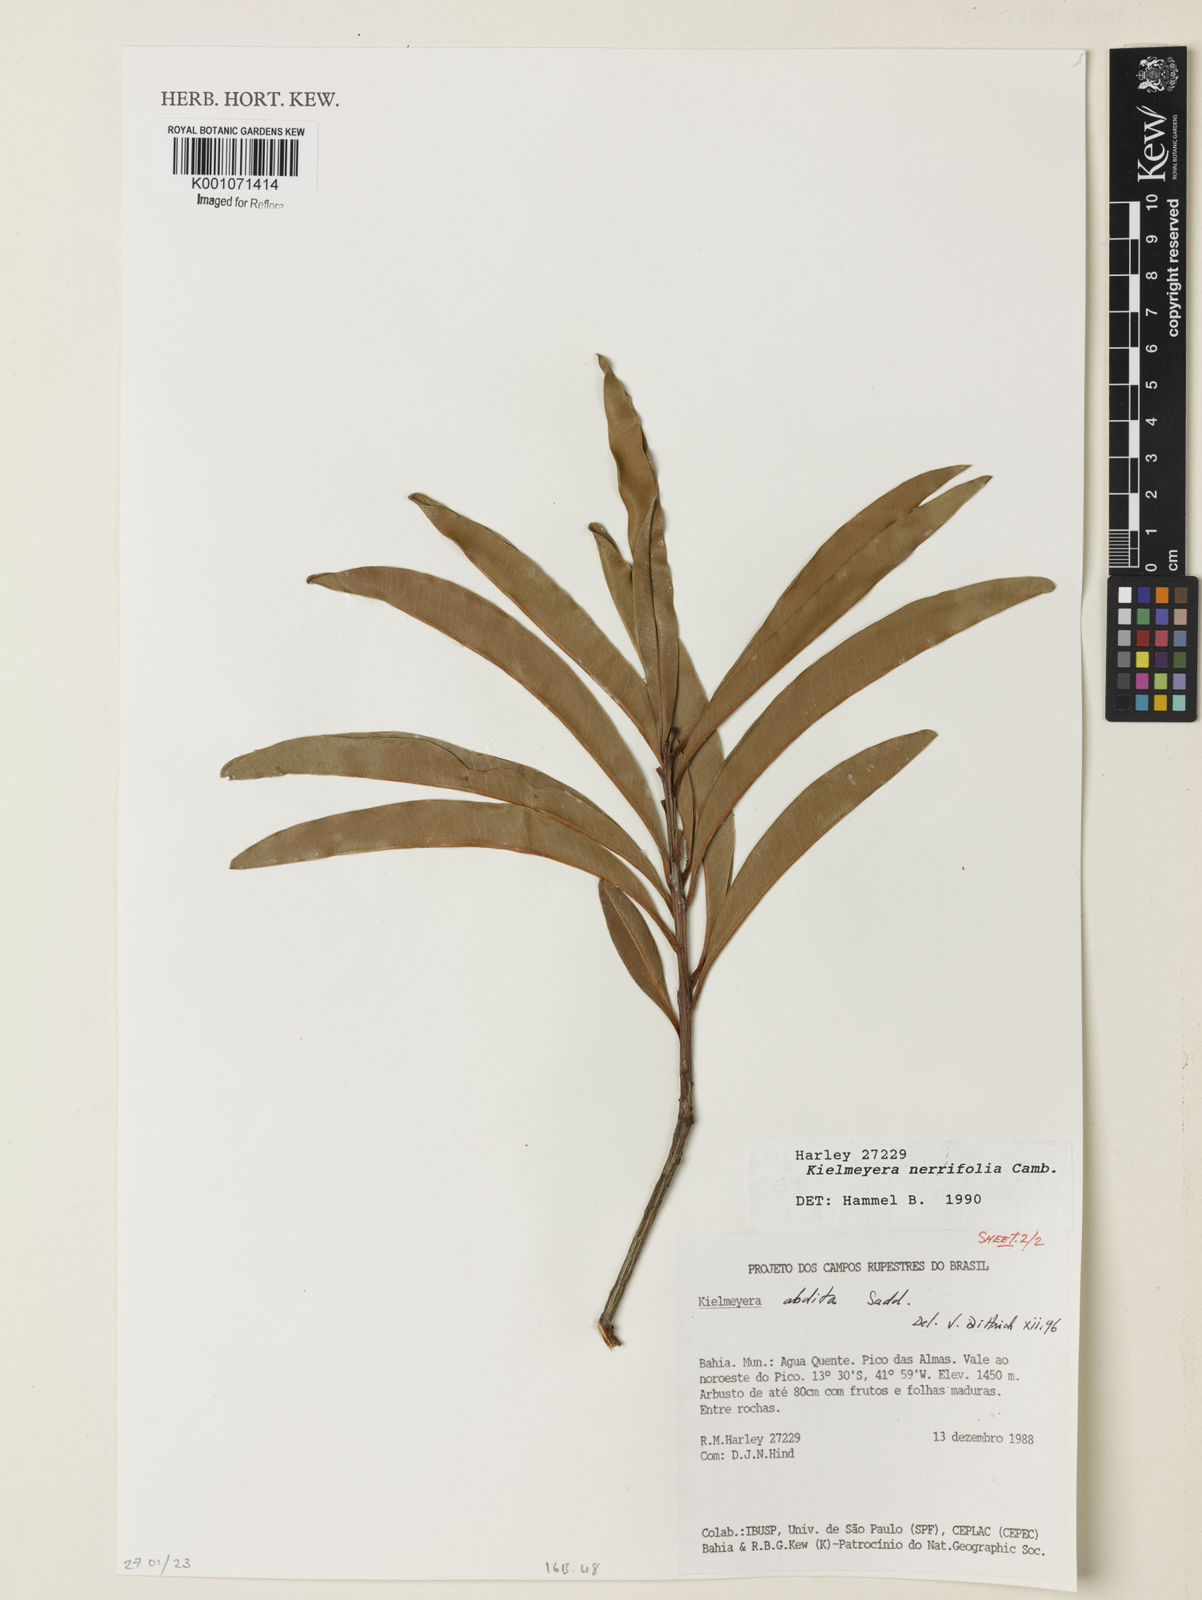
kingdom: Plantae
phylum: Tracheophyta
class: Magnoliopsida
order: Malpighiales
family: Calophyllaceae
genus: Kielmeyera
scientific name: Kielmeyera abdita
